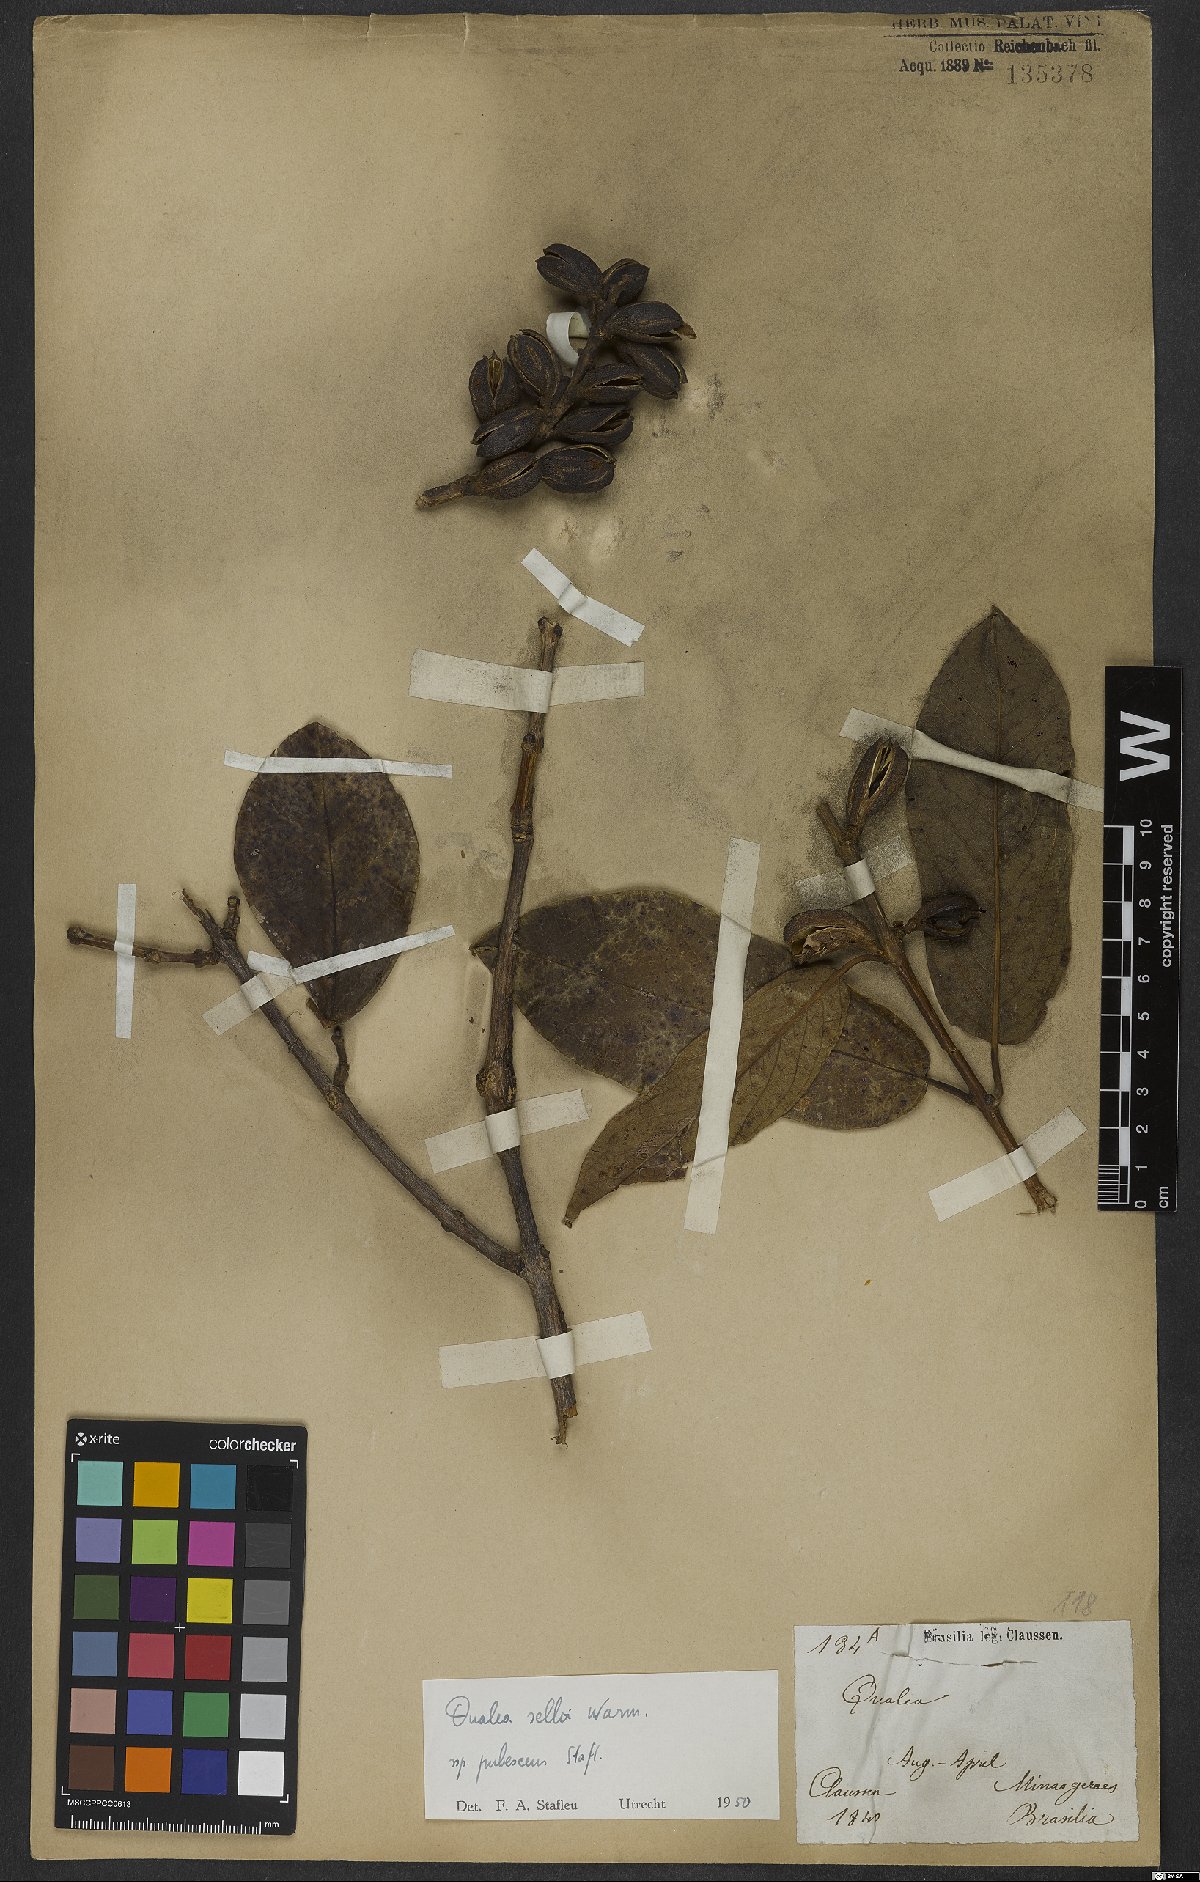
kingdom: Plantae
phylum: Tracheophyta
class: Magnoliopsida
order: Myrtales
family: Vochysiaceae
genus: Qualea
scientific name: Qualea selloi
